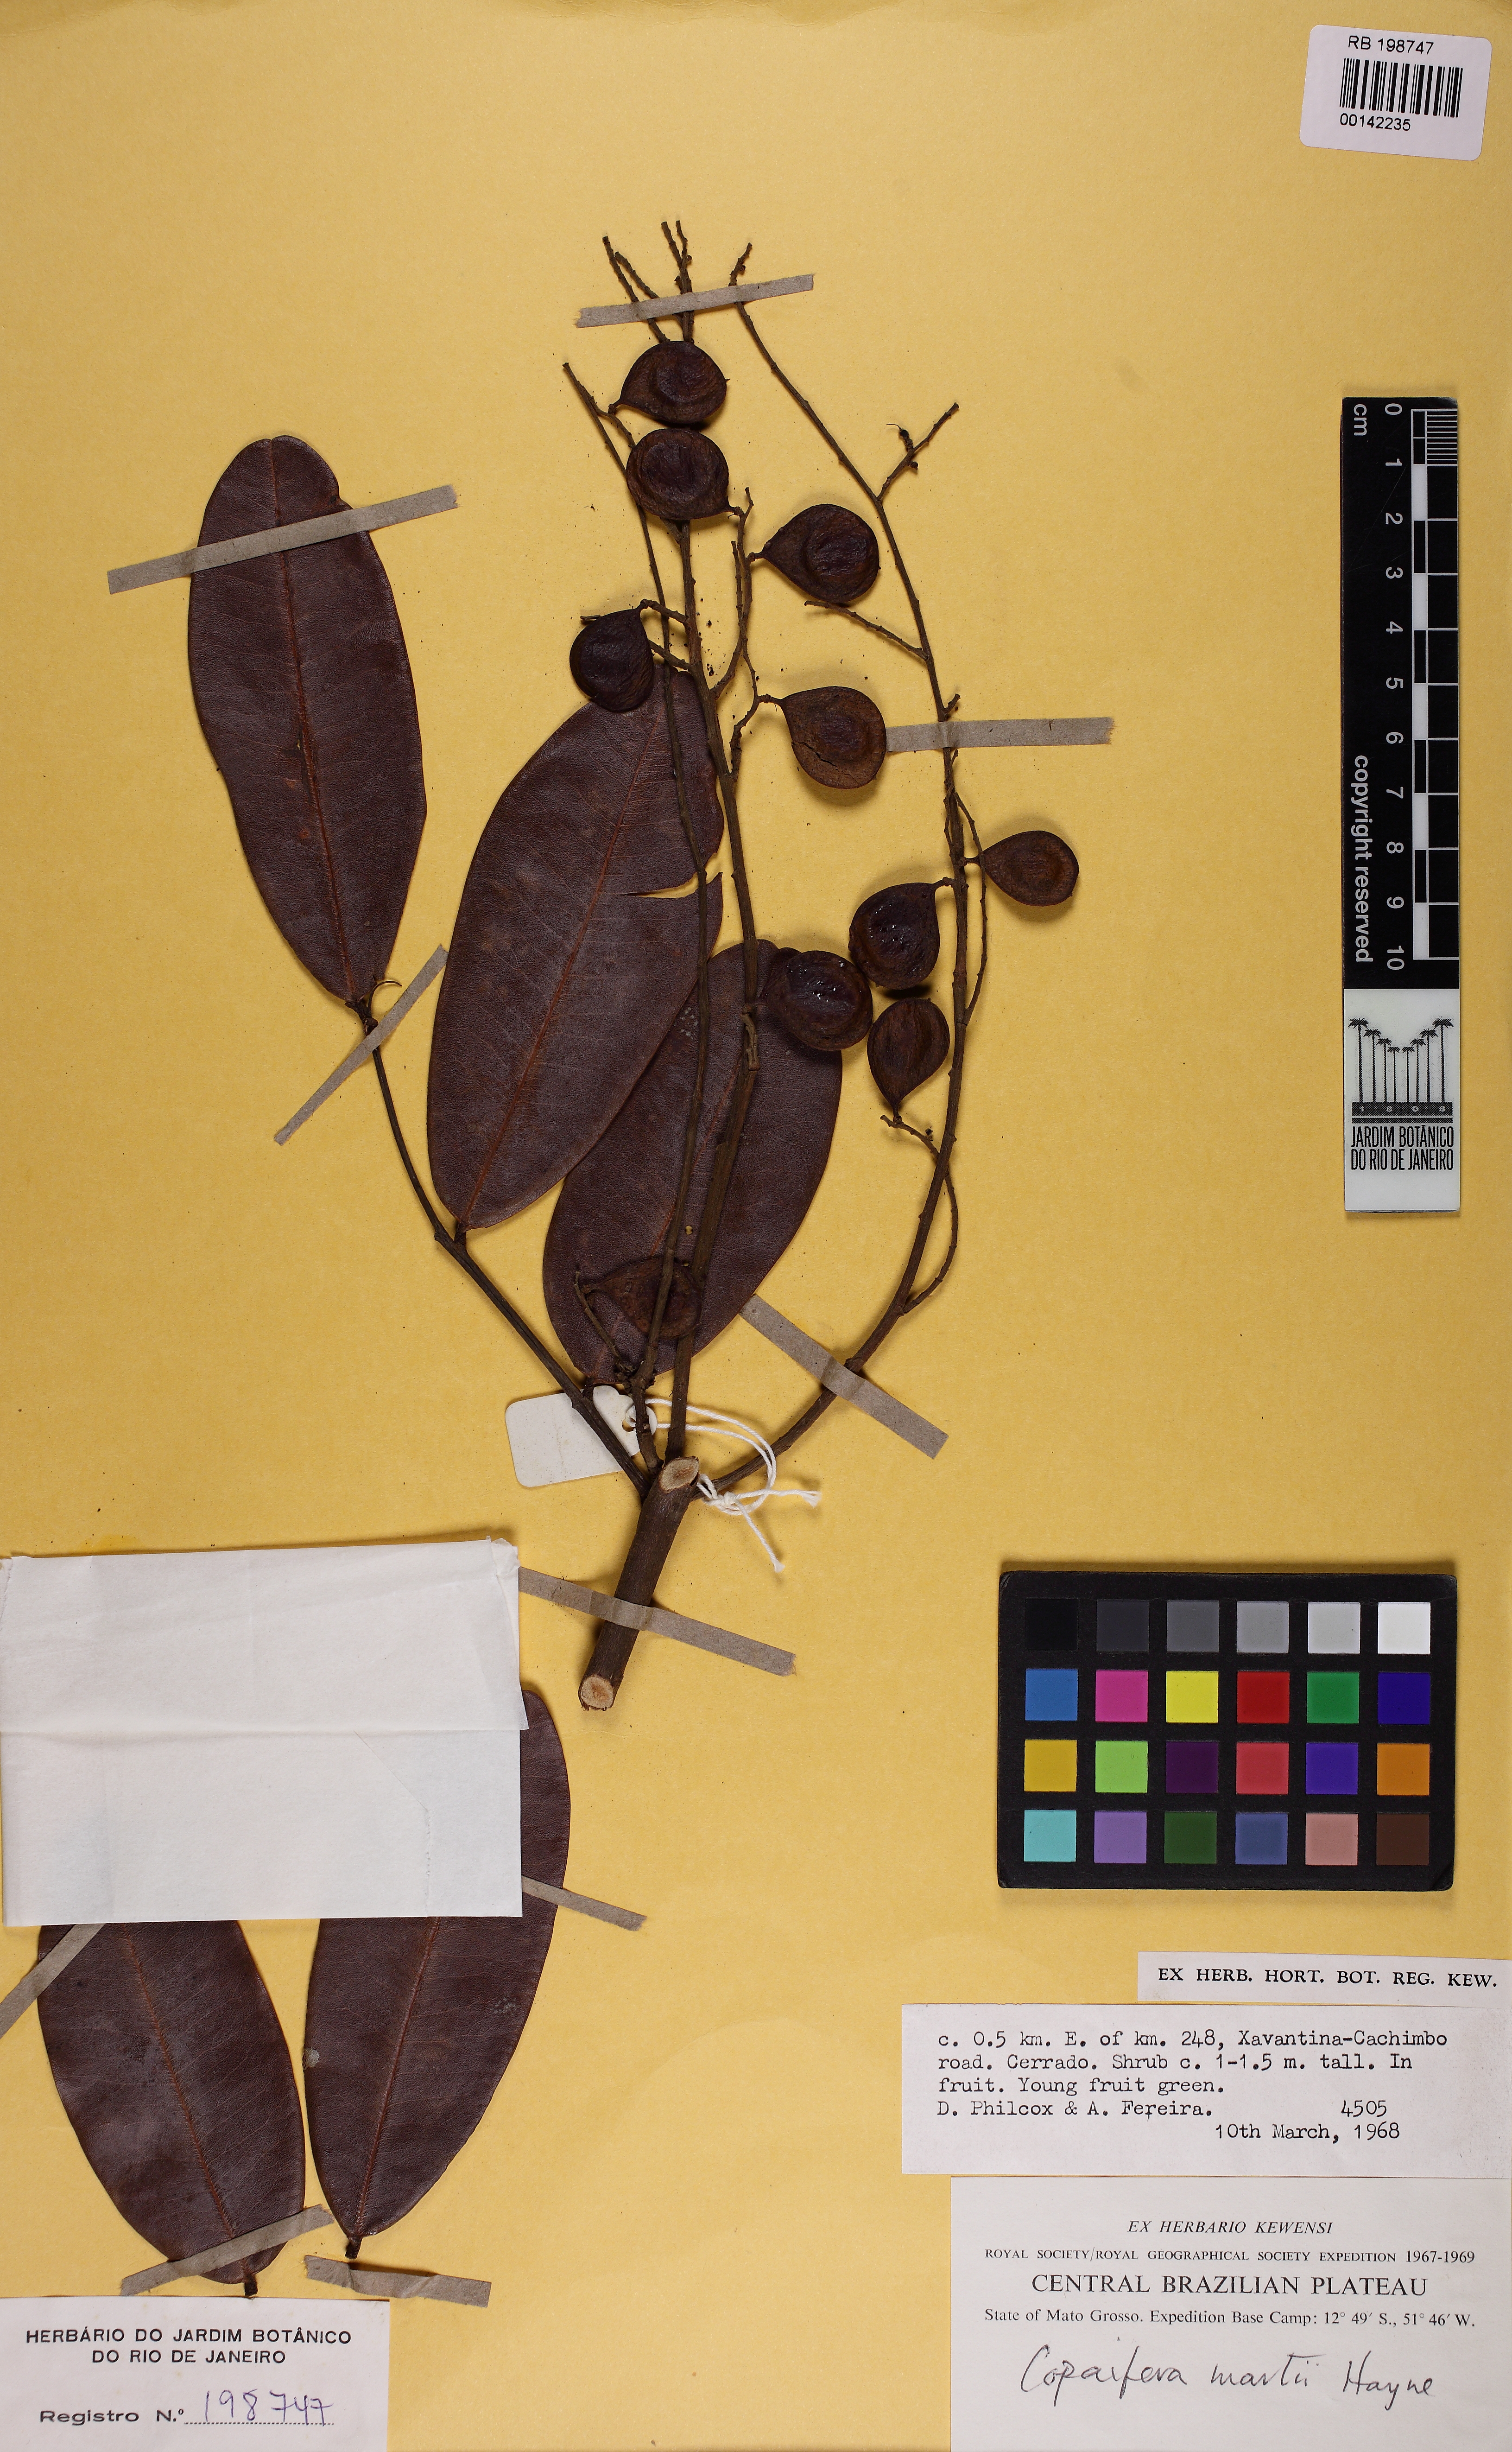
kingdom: Plantae
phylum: Tracheophyta
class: Magnoliopsida
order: Fabales
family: Fabaceae
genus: Copaifera
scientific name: Copaifera martii
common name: Copaiba
